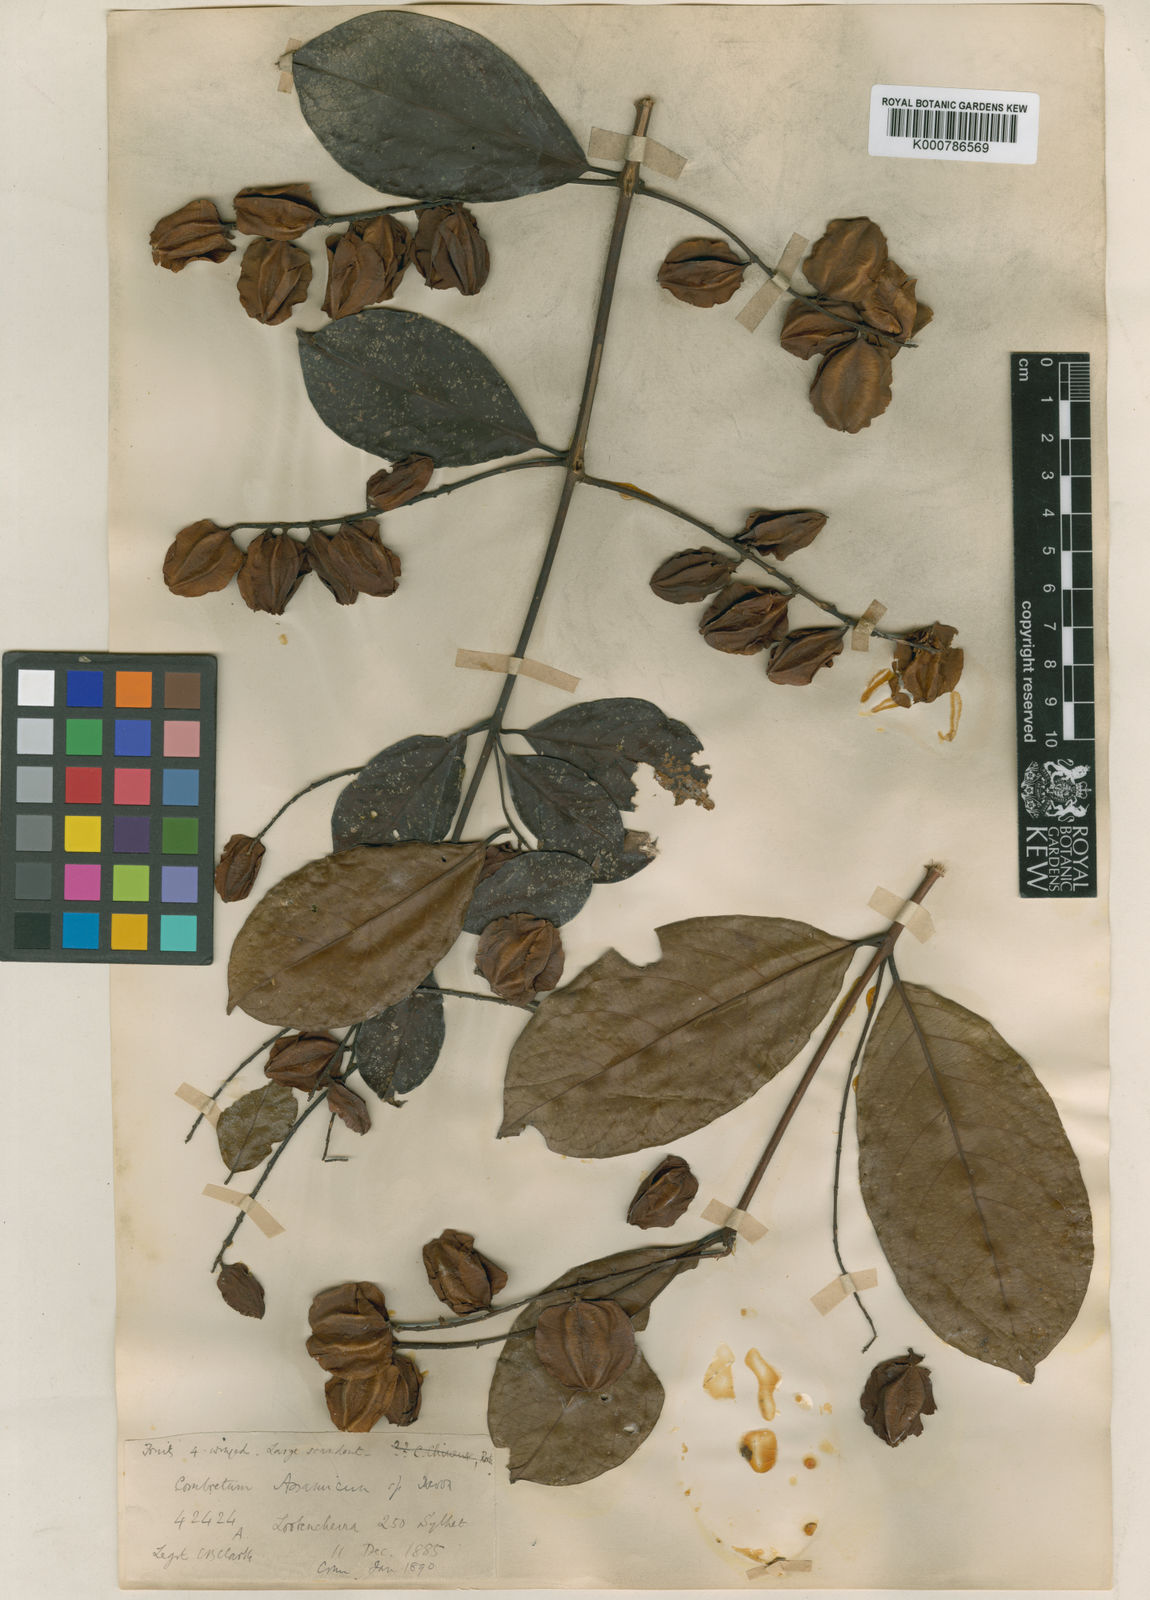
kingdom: Plantae
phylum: Tracheophyta
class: Magnoliopsida
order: Myrtales
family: Combretaceae
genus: Combretum
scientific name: Combretum acuminatum
